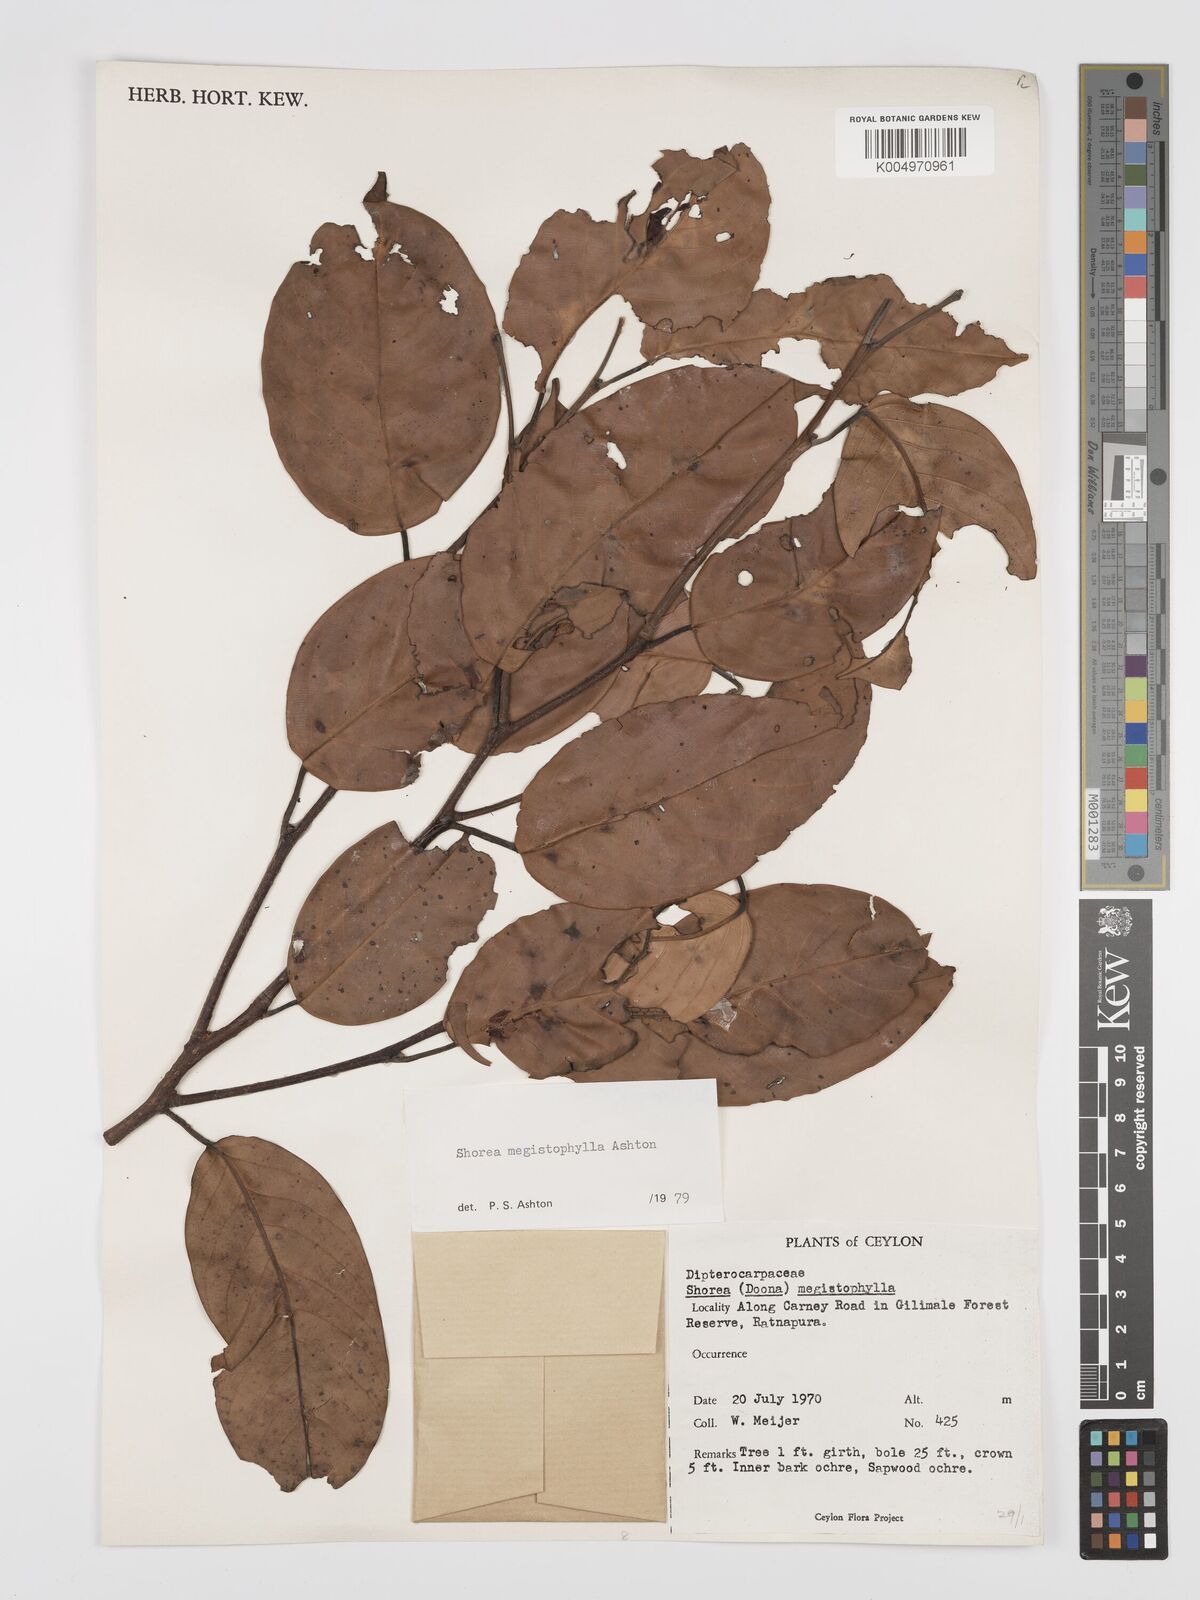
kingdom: Plantae
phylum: Tracheophyta
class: Magnoliopsida
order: Malvales
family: Dipterocarpaceae
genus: Doona
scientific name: Doona macrophylla
